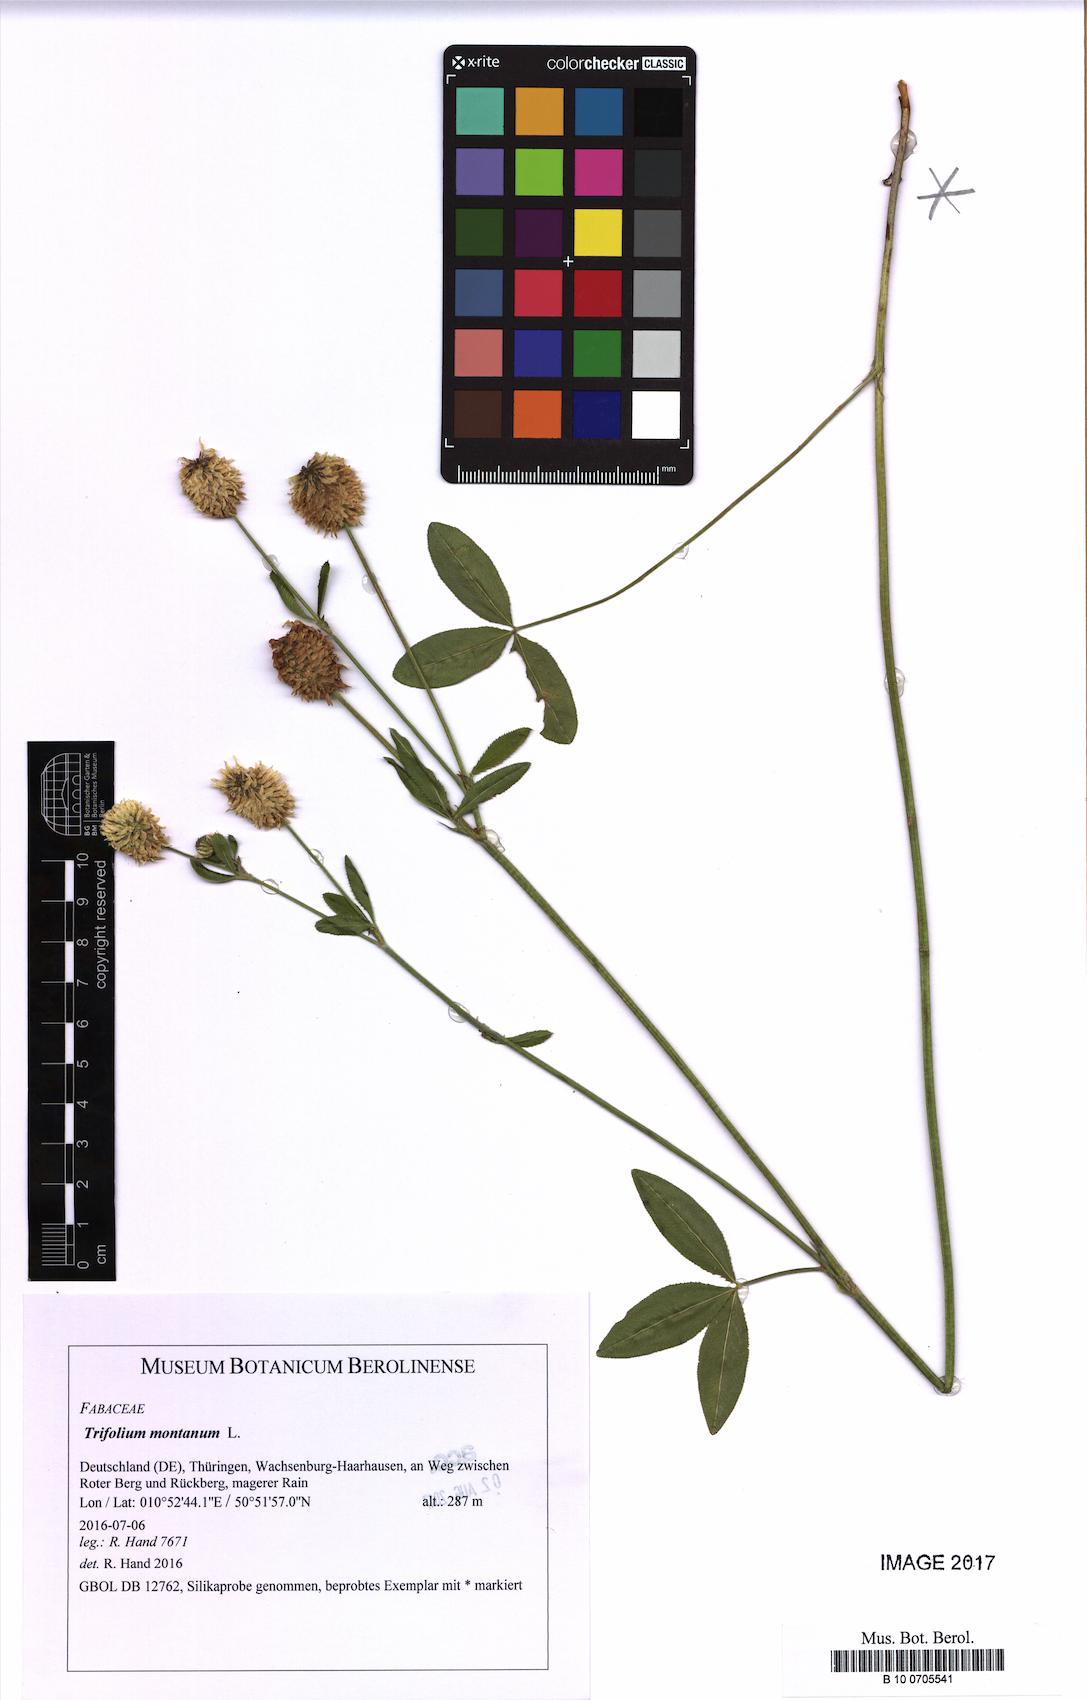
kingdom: Plantae
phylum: Tracheophyta
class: Magnoliopsida
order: Fabales
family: Fabaceae
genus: Trifolium
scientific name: Trifolium montanum
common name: Mountain clover
